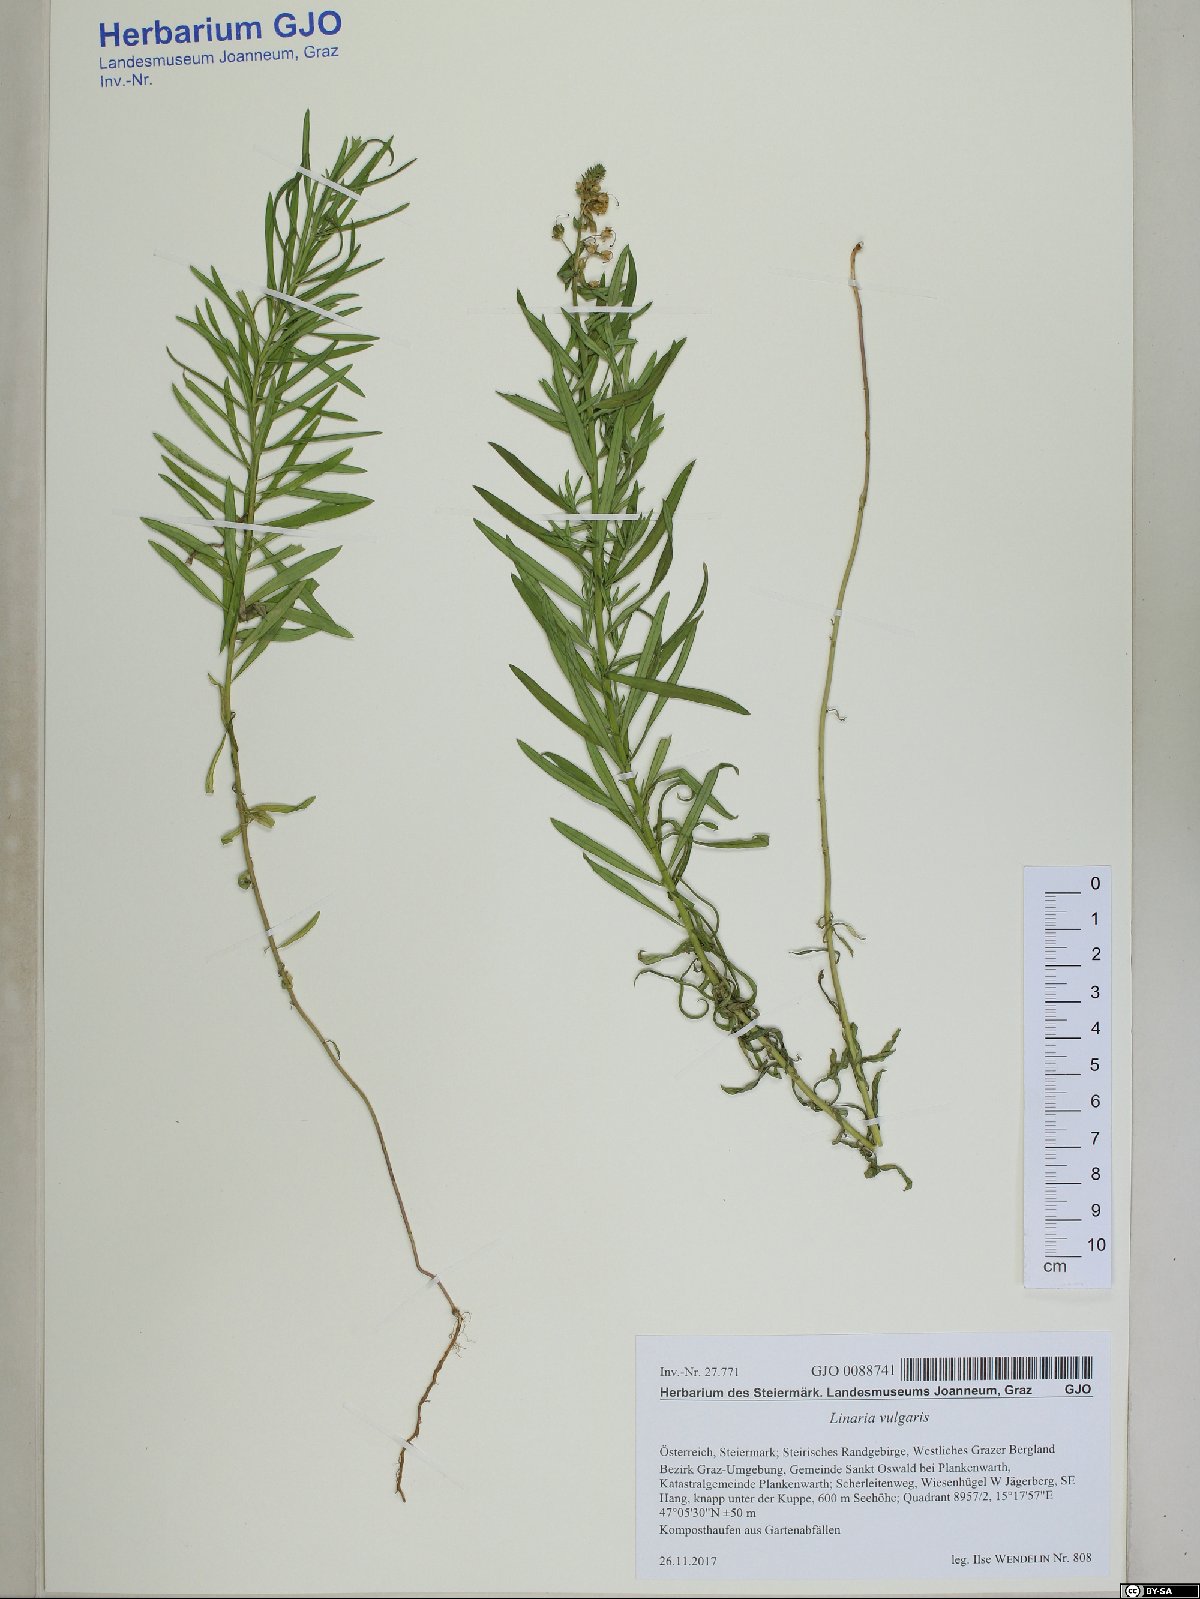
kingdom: Plantae
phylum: Tracheophyta
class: Magnoliopsida
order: Lamiales
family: Plantaginaceae
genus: Linaria
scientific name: Linaria vulgaris
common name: Butter and eggs
